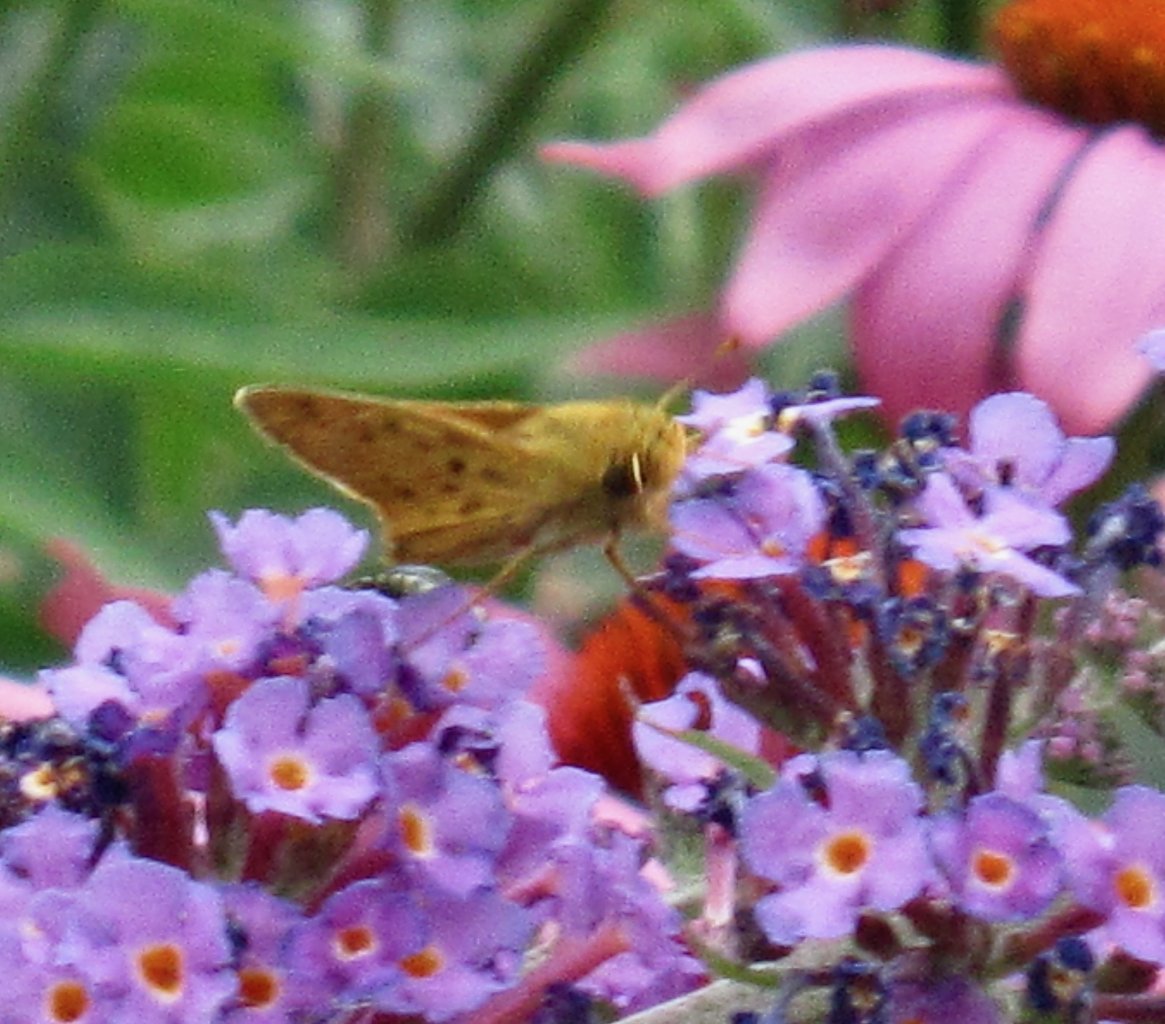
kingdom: Animalia
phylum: Arthropoda
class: Insecta
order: Lepidoptera
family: Hesperiidae
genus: Hylephila
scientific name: Hylephila phyleus
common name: Fiery Skipper
